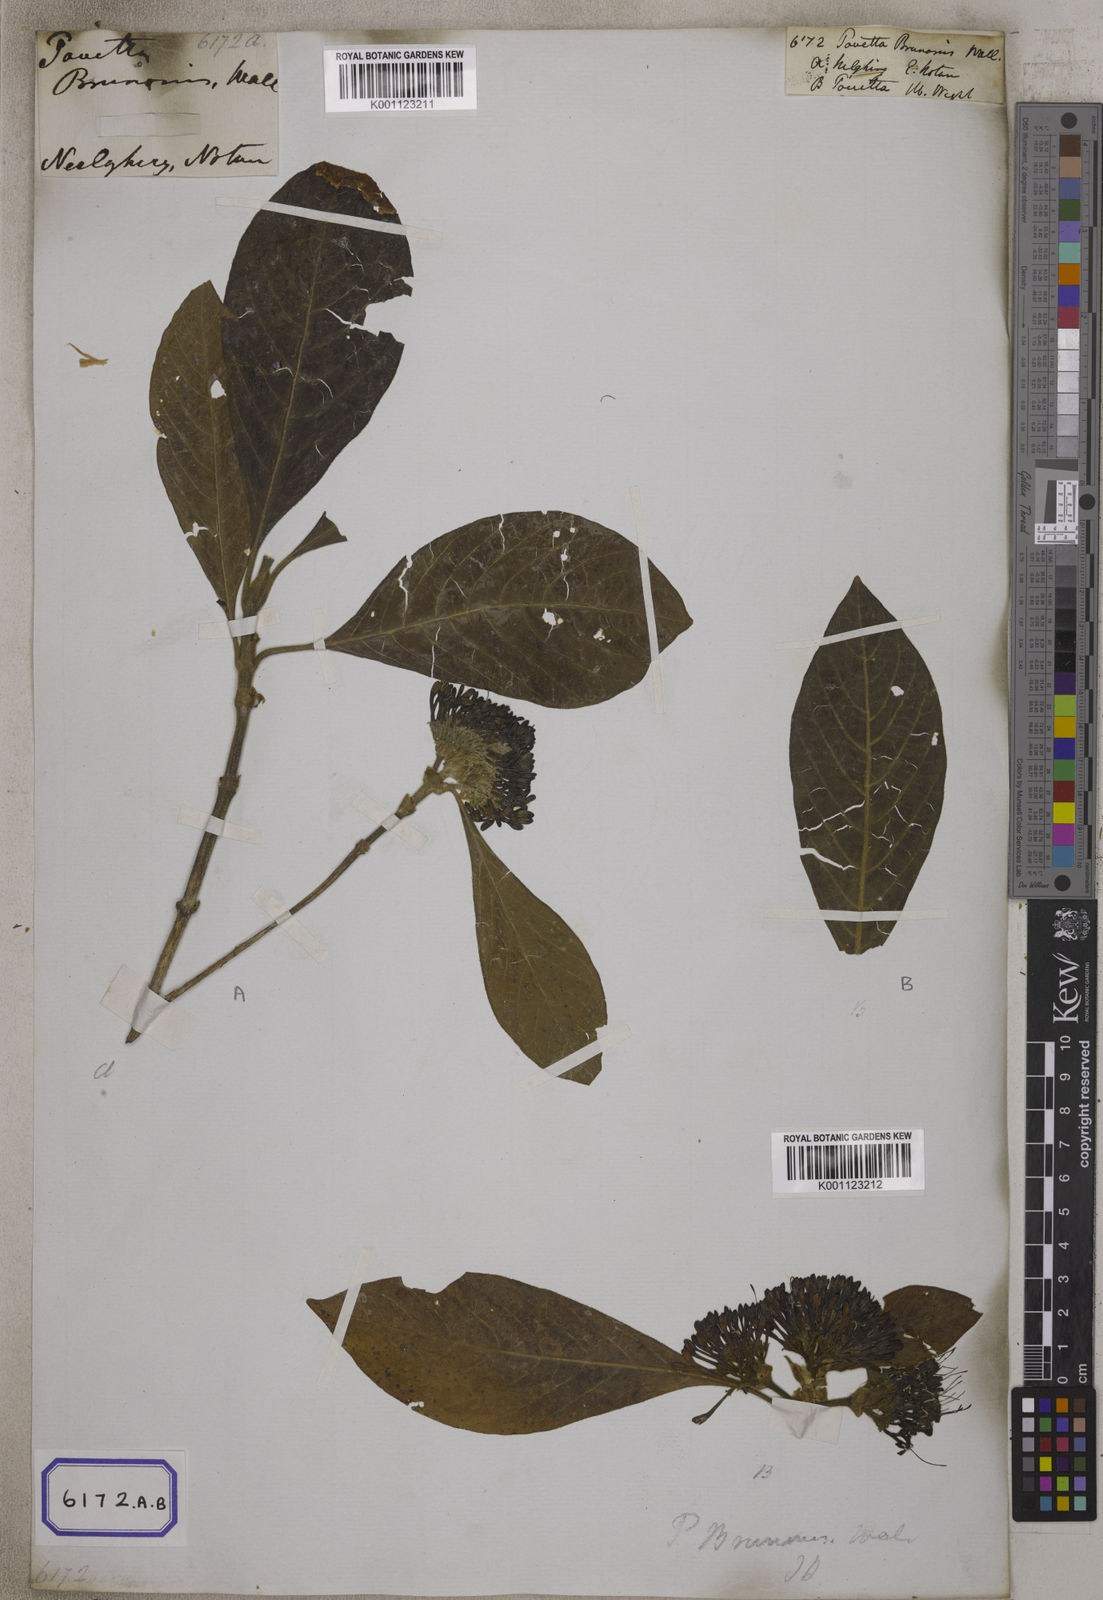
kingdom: Plantae
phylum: Tracheophyta
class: Magnoliopsida
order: Gentianales
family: Rubiaceae
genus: Pavetta
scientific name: Pavetta
